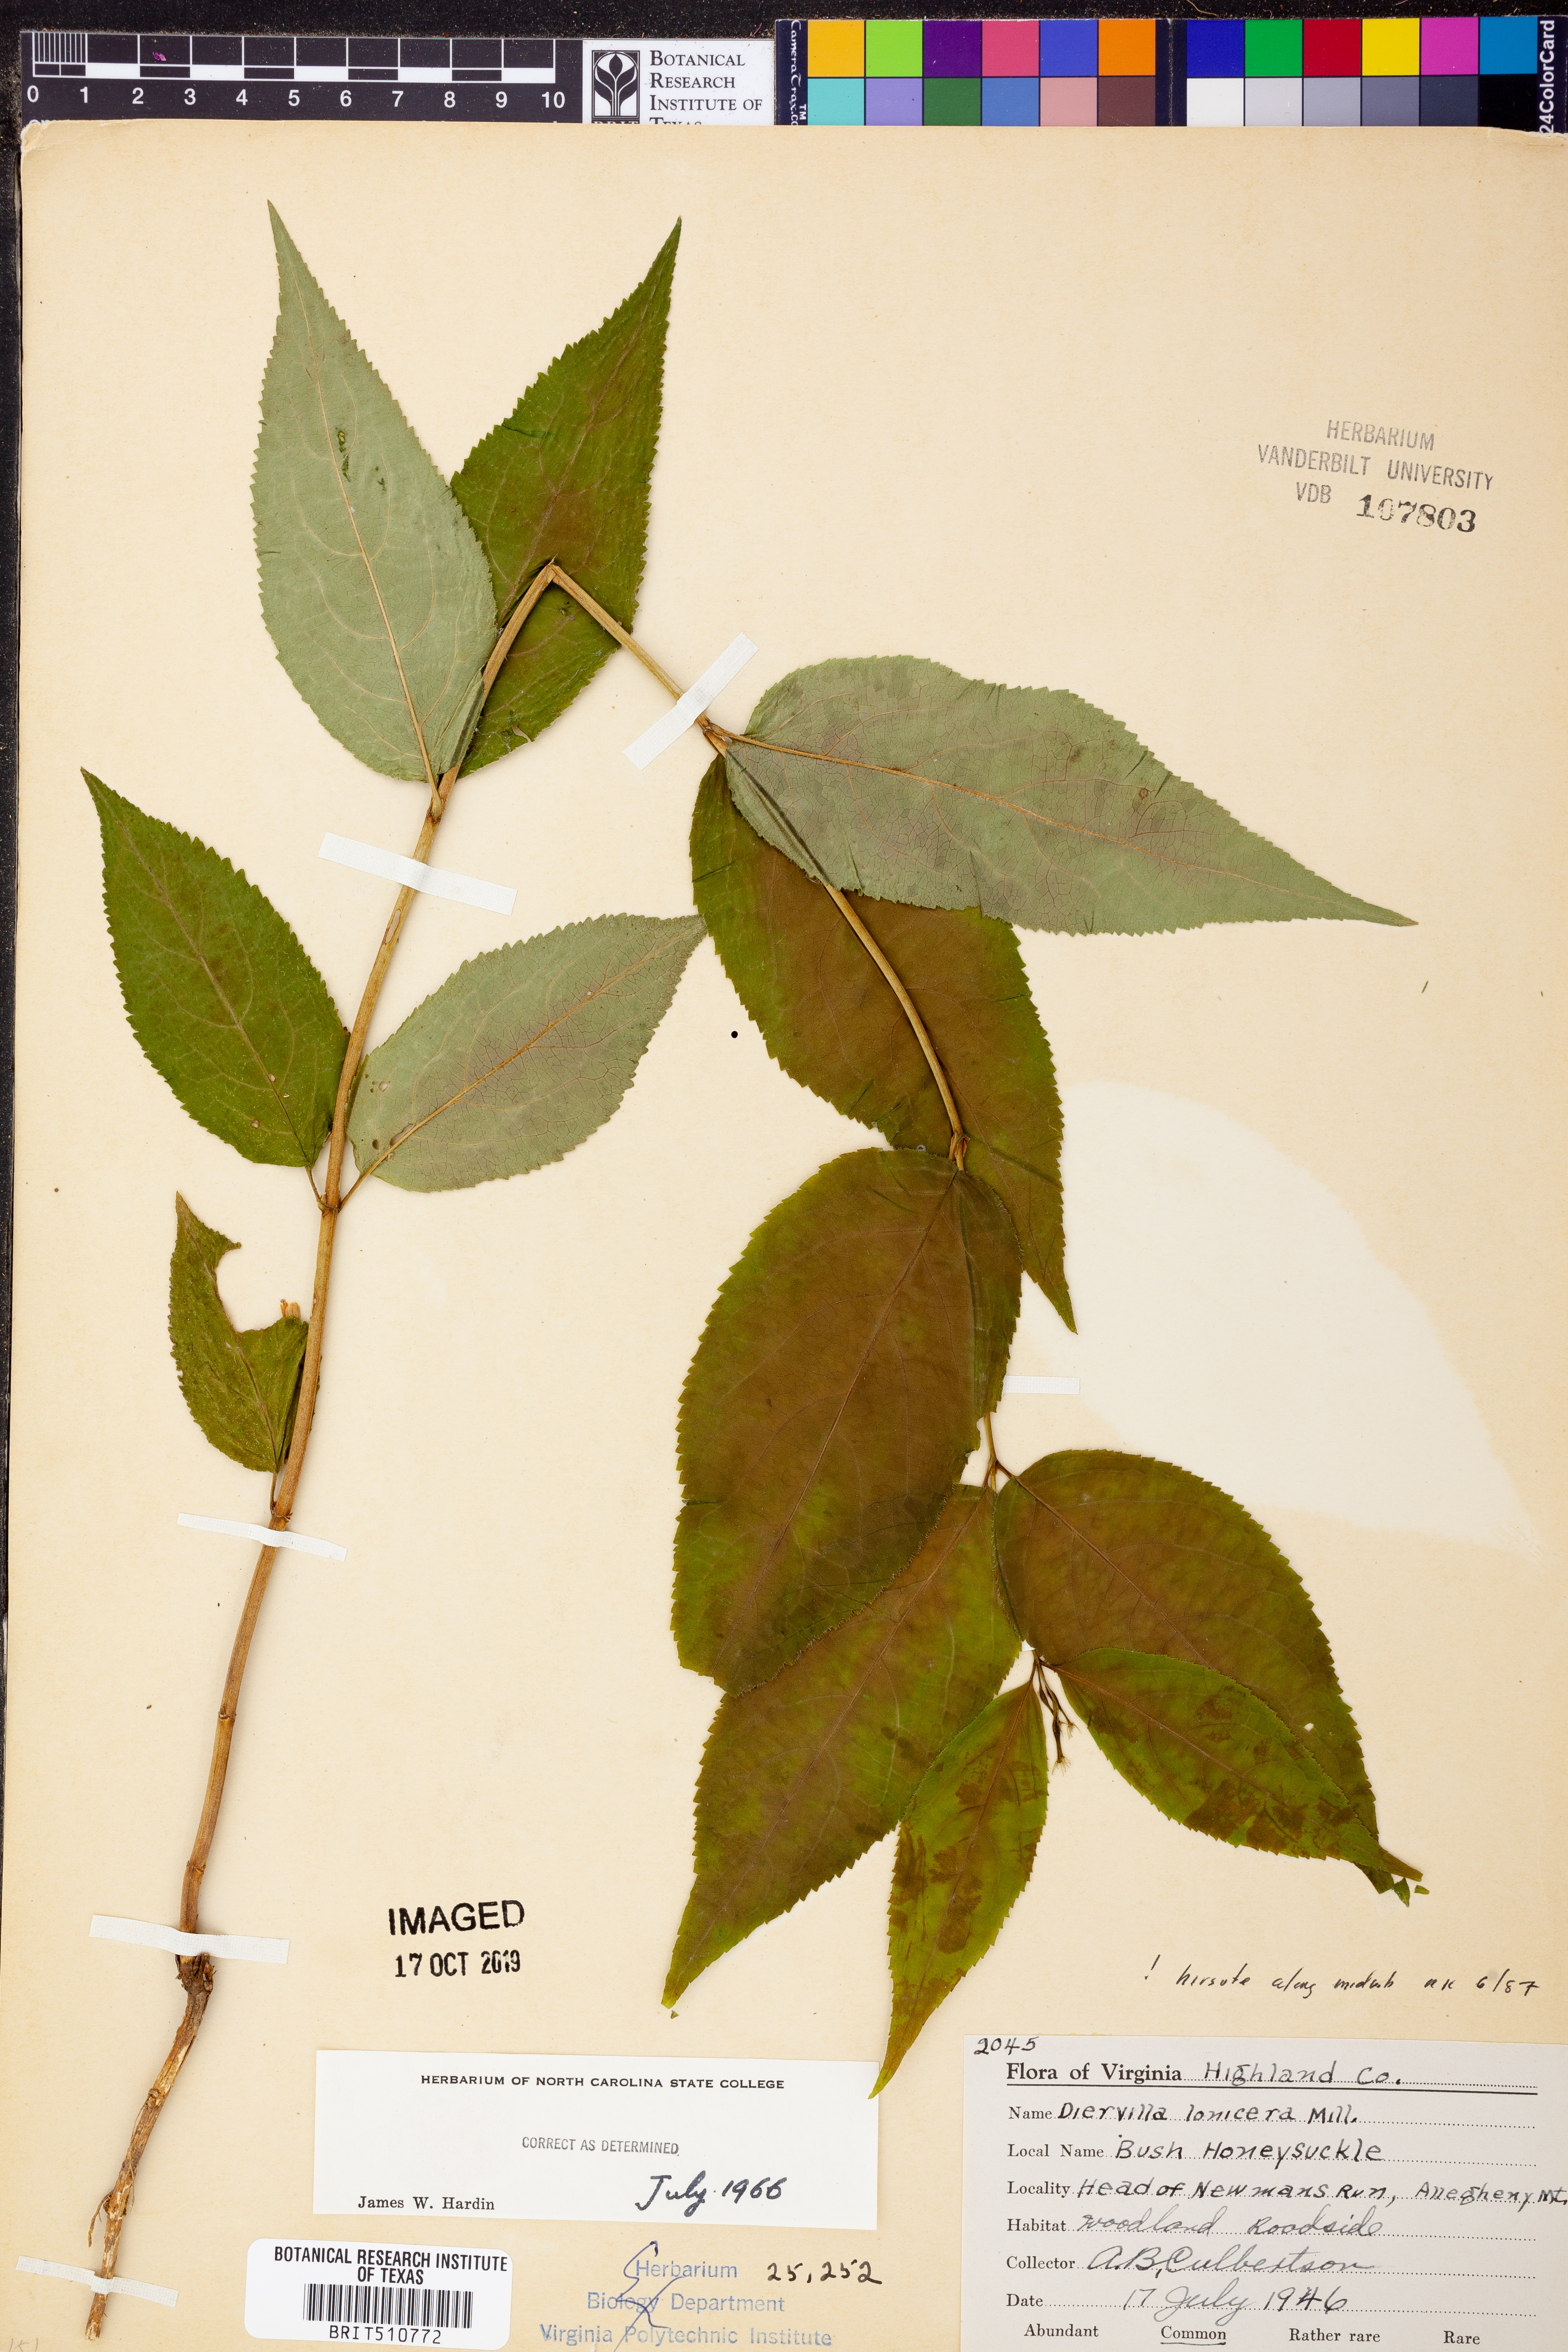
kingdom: Plantae
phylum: Tracheophyta
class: Magnoliopsida
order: Dipsacales
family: Caprifoliaceae
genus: Diervilla
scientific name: Diervilla lonicera
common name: Bush-honeysuckle
